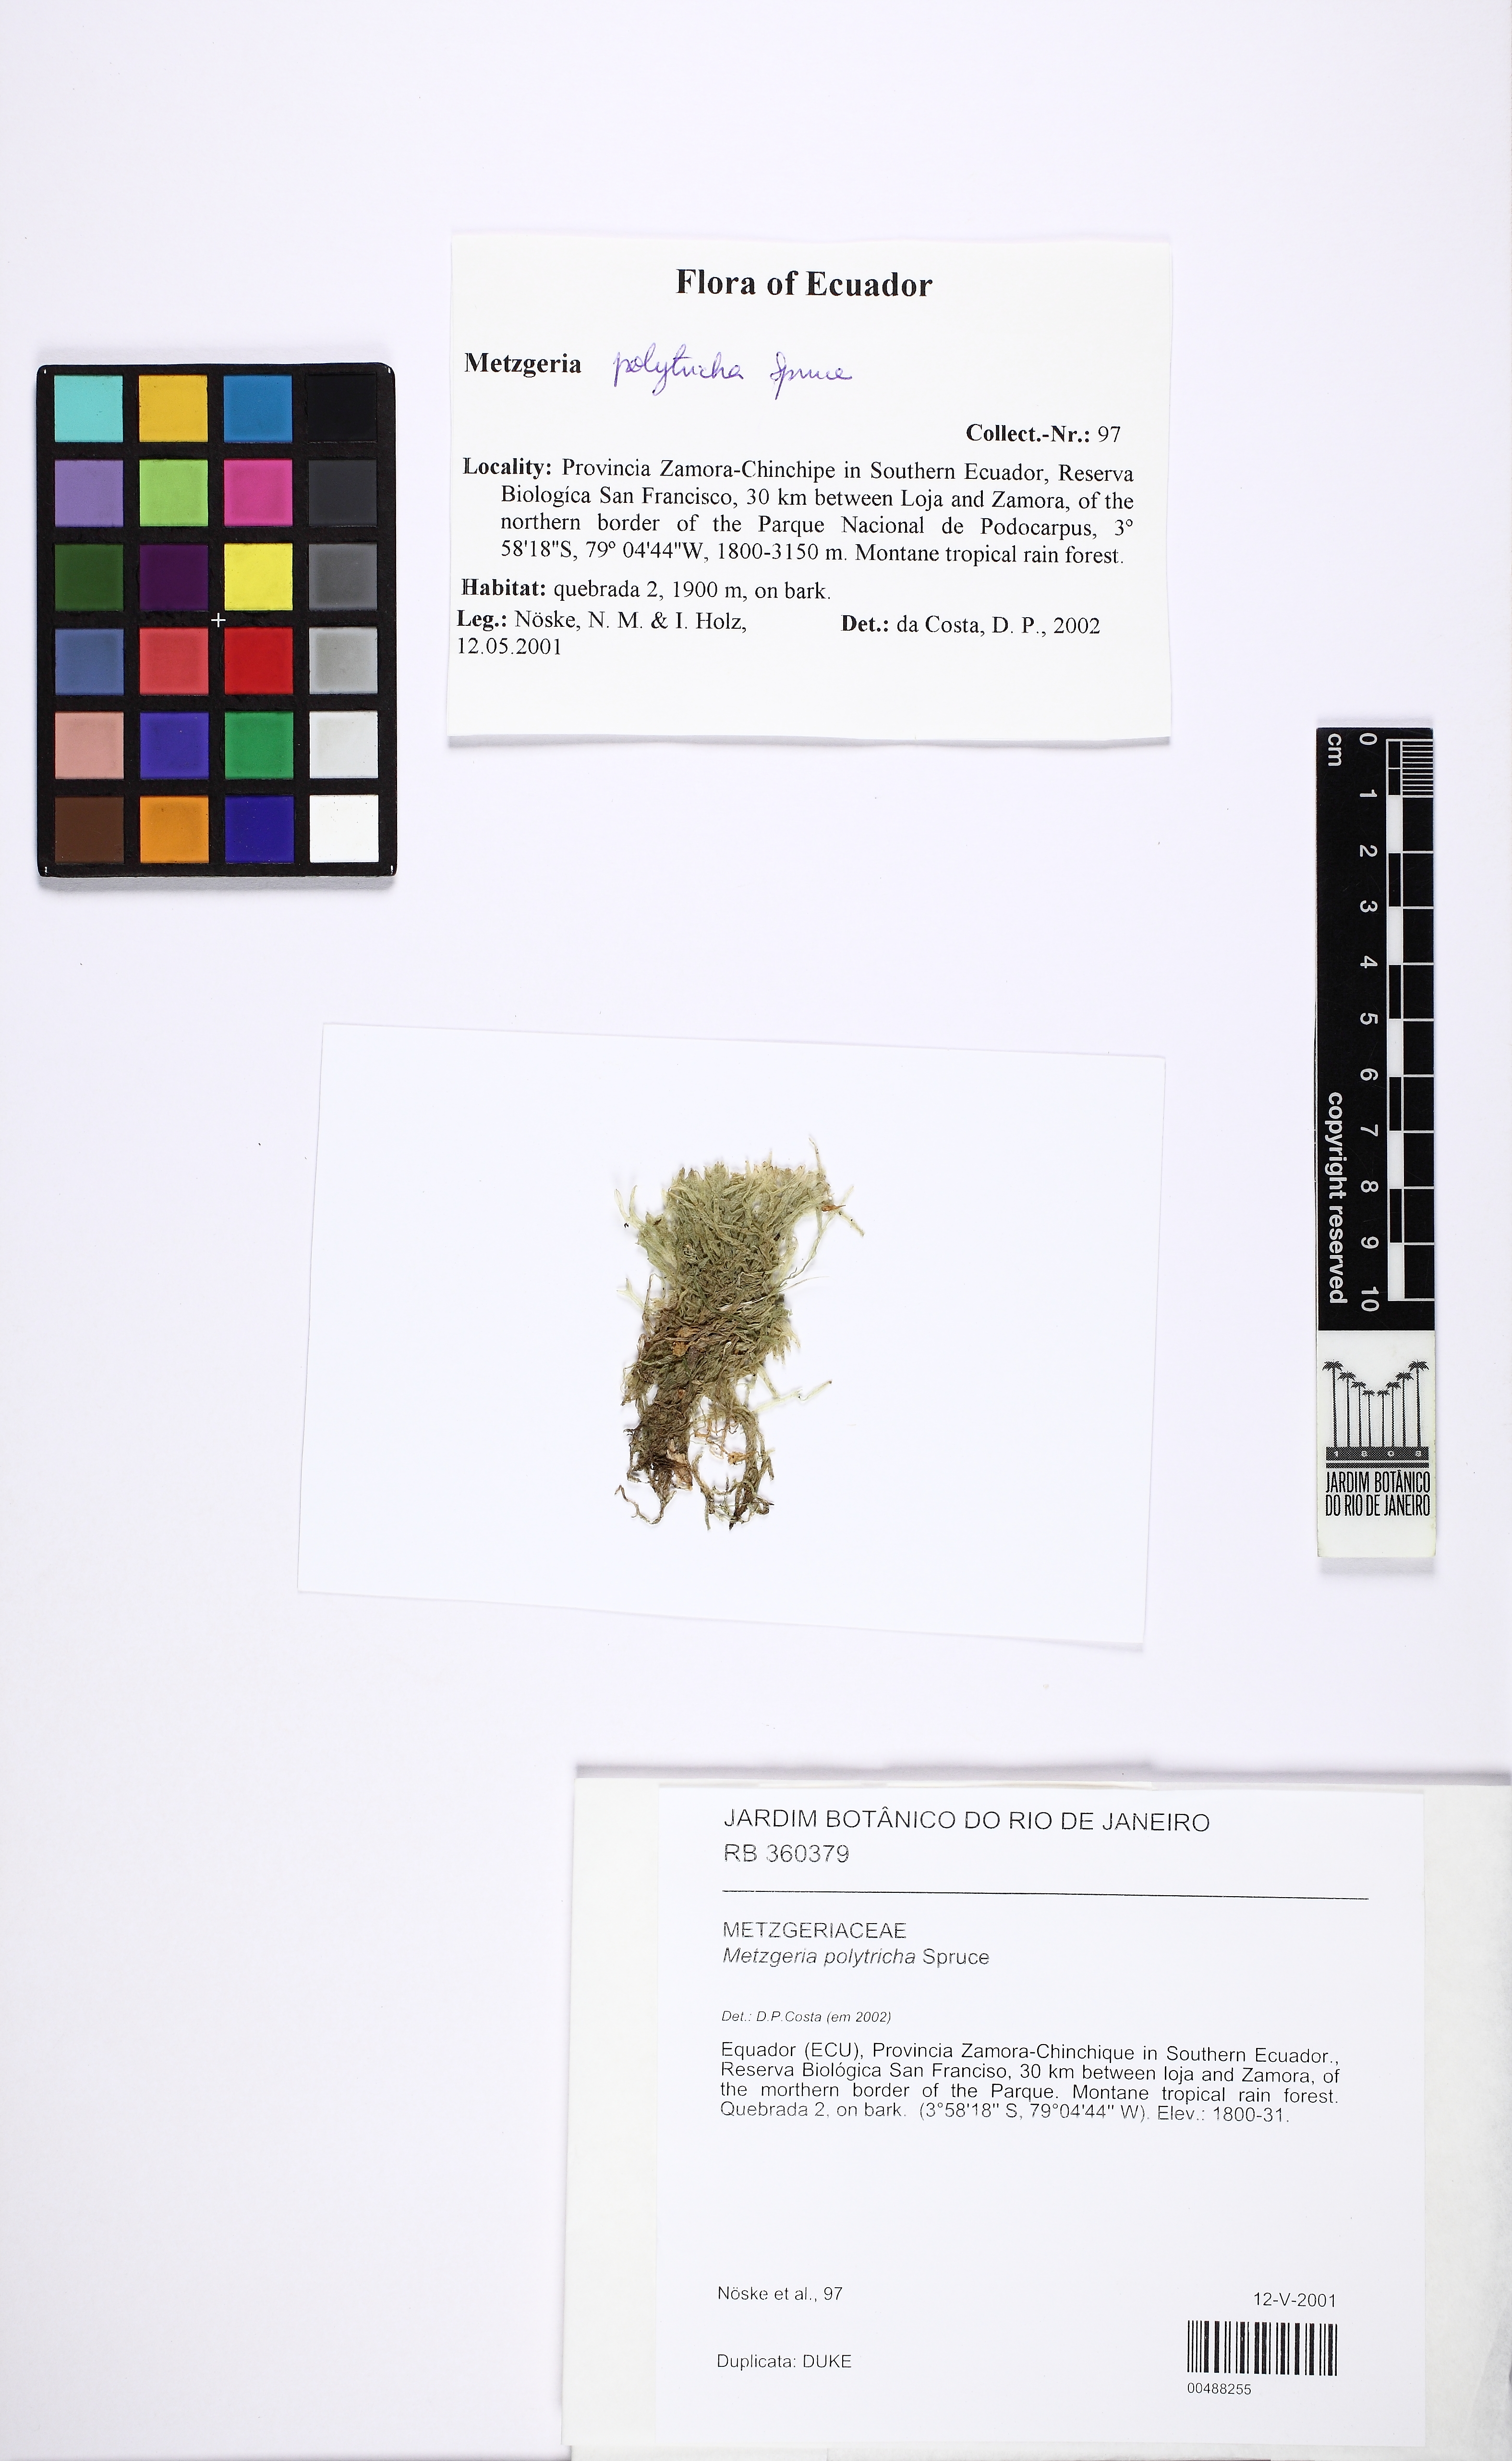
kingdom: Plantae
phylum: Marchantiophyta
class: Jungermanniopsida
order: Metzgeriales
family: Metzgeriaceae
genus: Metzgeria
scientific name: Metzgeria polytricha
